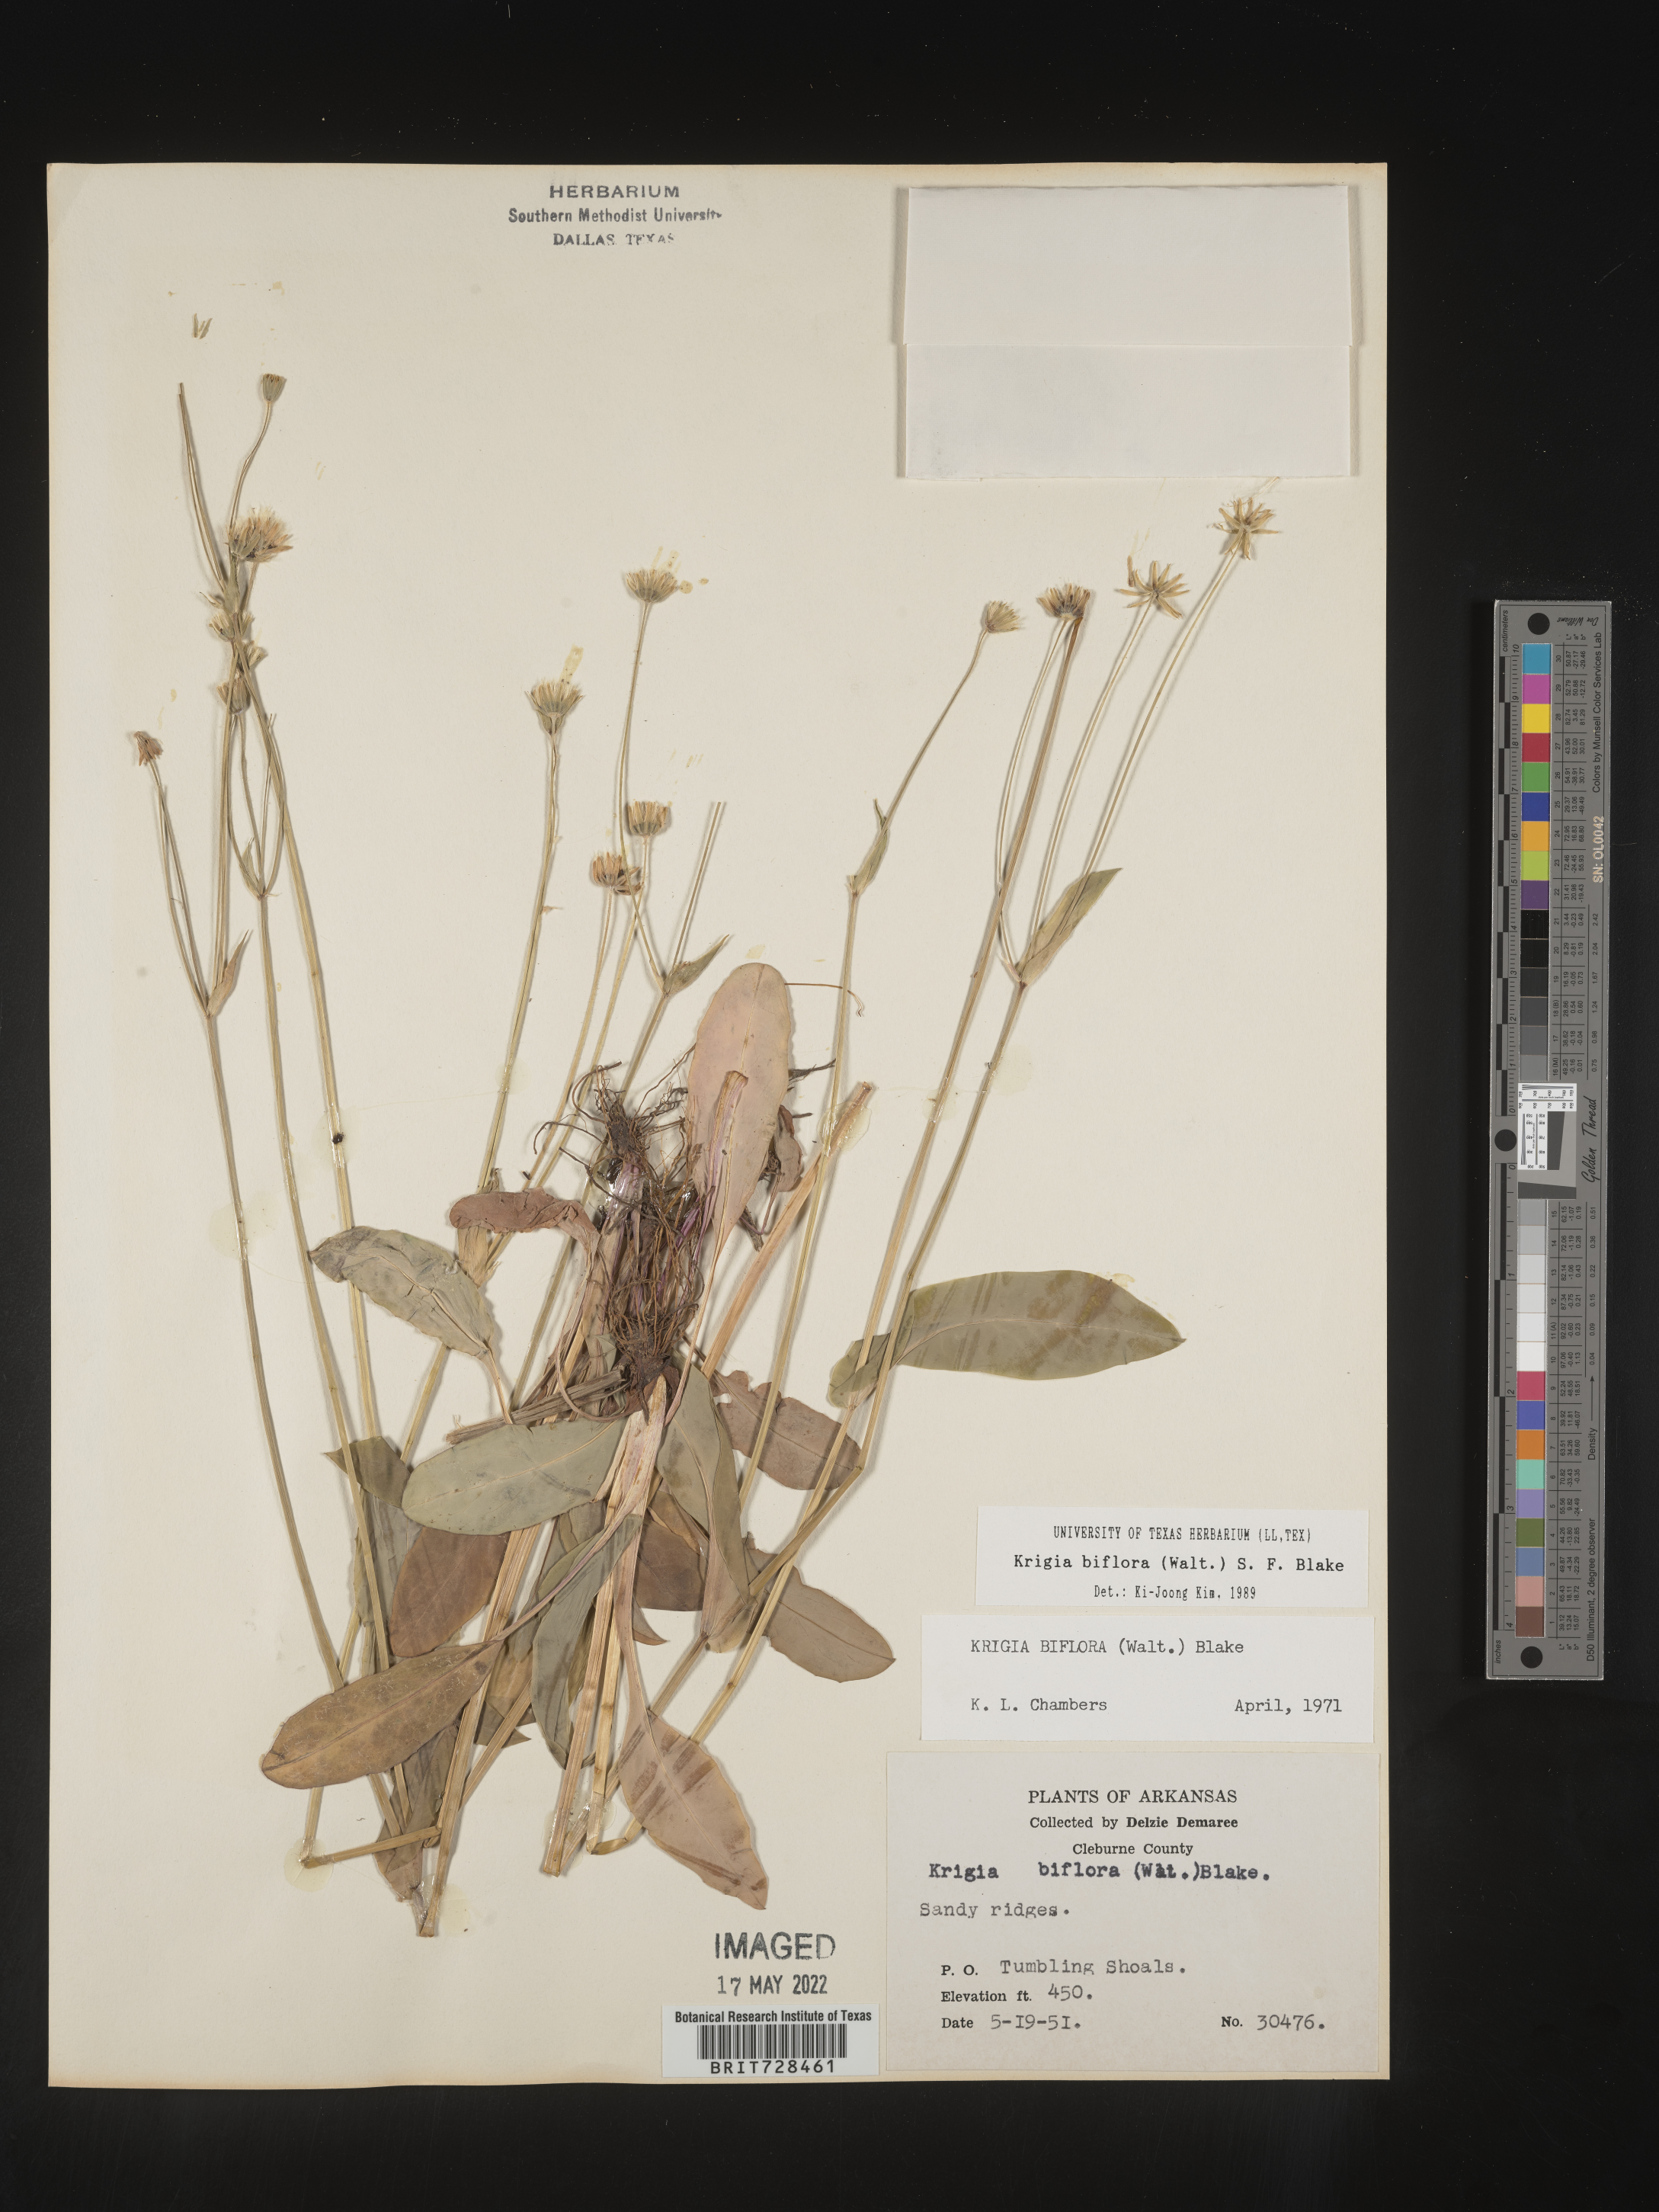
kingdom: Plantae
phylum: Tracheophyta
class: Magnoliopsida
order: Asterales
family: Asteraceae
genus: Krigia
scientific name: Krigia biflora
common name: Orange dwarf-dandelion
